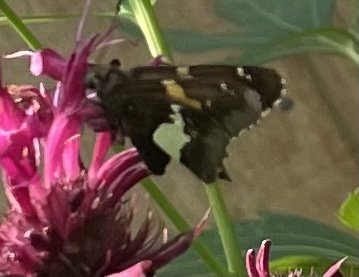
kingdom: Animalia
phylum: Arthropoda
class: Insecta
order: Lepidoptera
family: Hesperiidae
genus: Epargyreus
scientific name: Epargyreus clarus
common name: Silver-spotted Skipper
